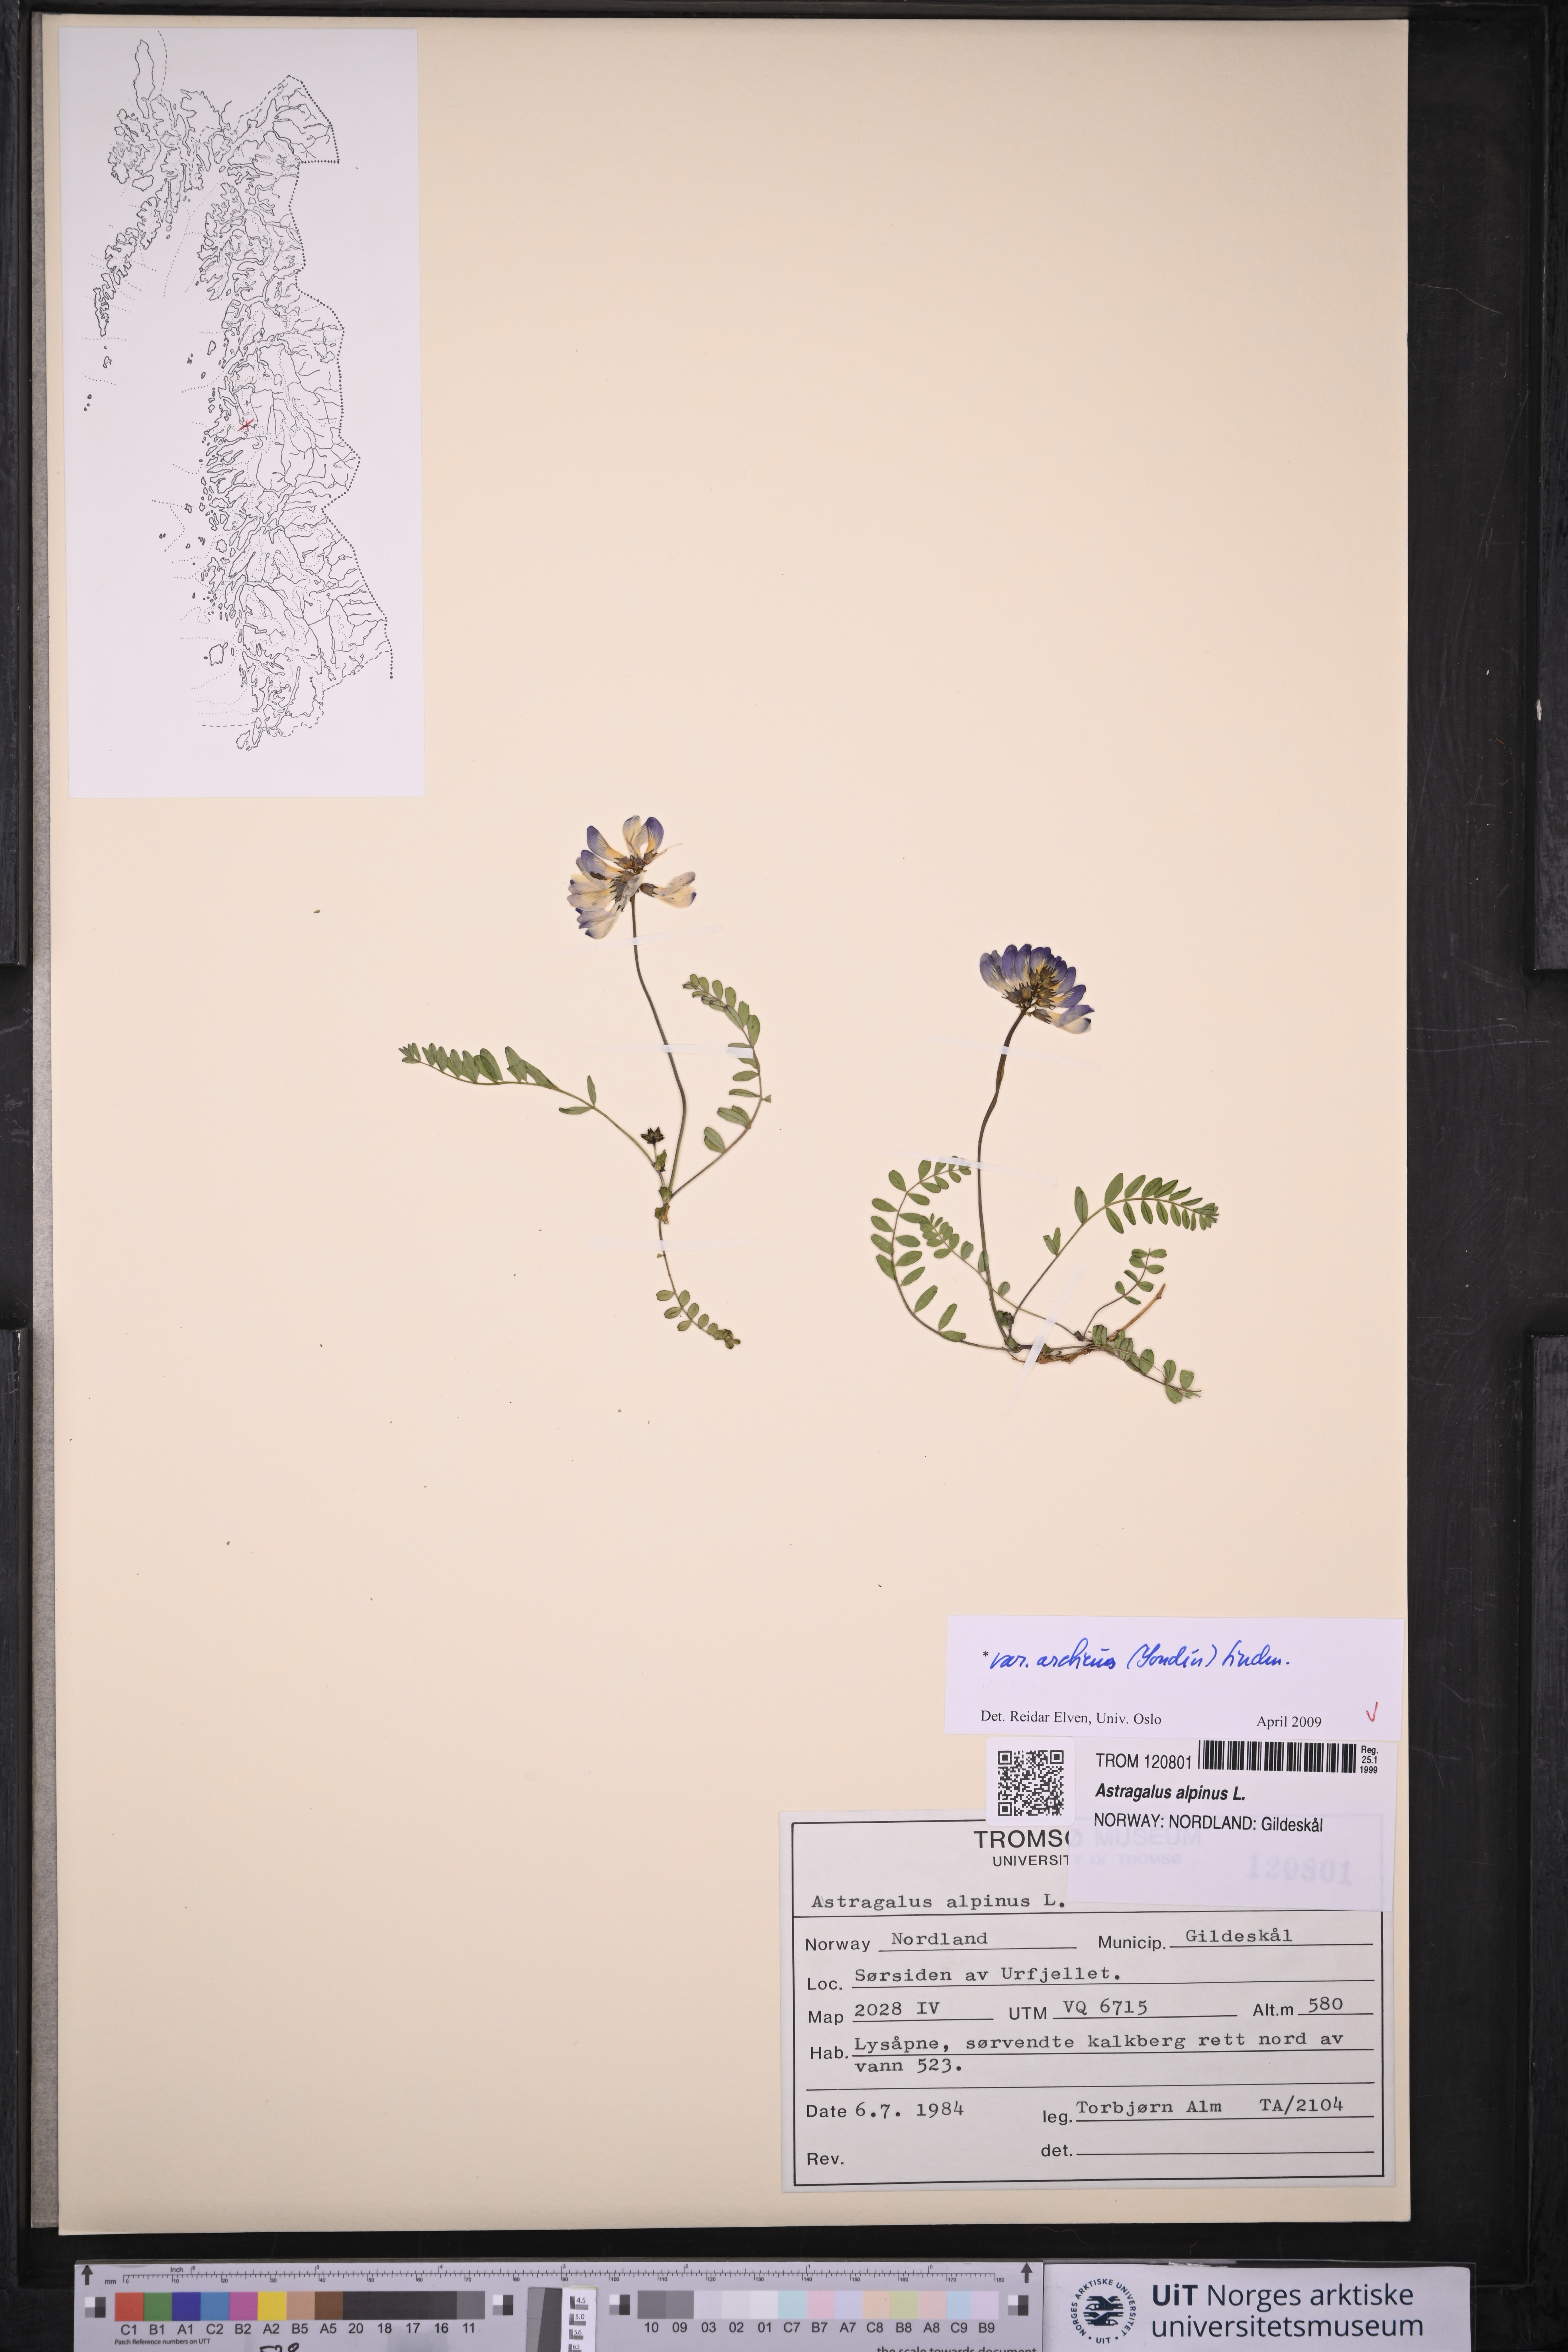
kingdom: Plantae
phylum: Tracheophyta
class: Magnoliopsida
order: Fabales
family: Fabaceae
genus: Astragalus
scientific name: Astragalus norvegicus
